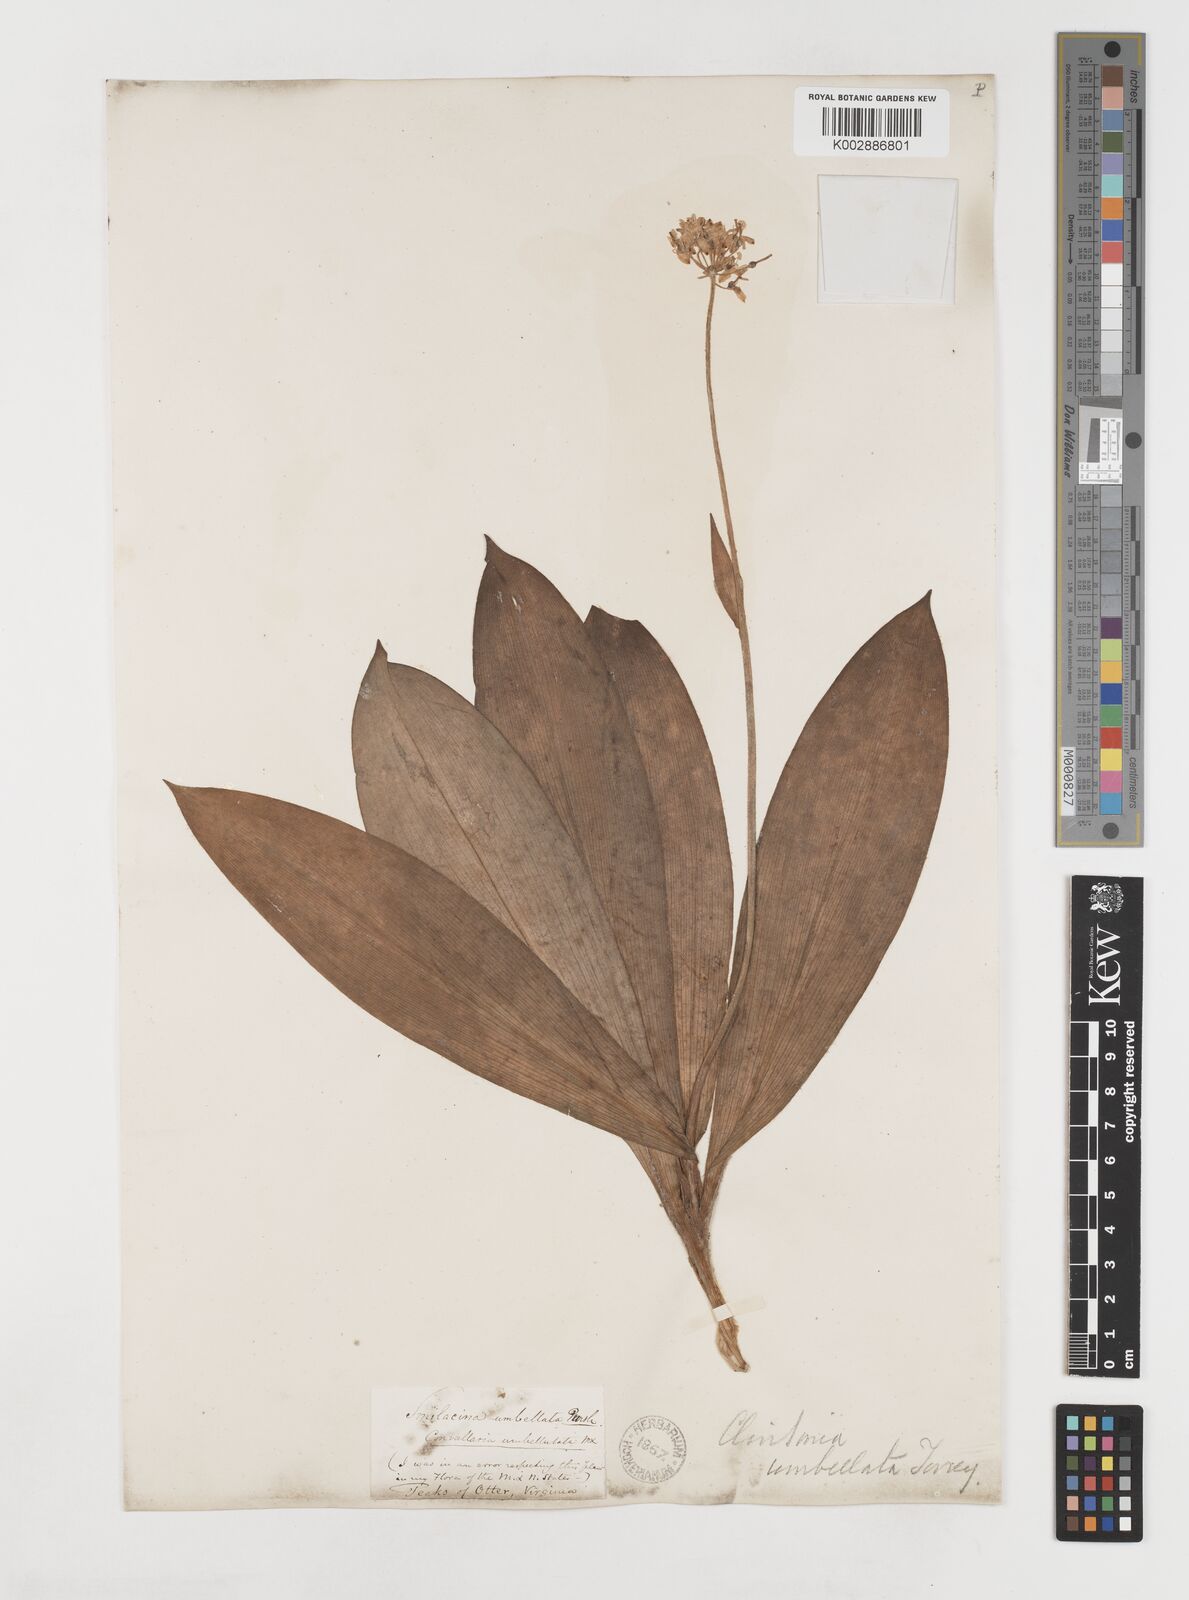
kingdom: Plantae
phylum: Tracheophyta
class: Liliopsida
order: Liliales
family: Liliaceae
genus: Clintonia
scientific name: Clintonia umbellulata
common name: Speckle wood-lily
